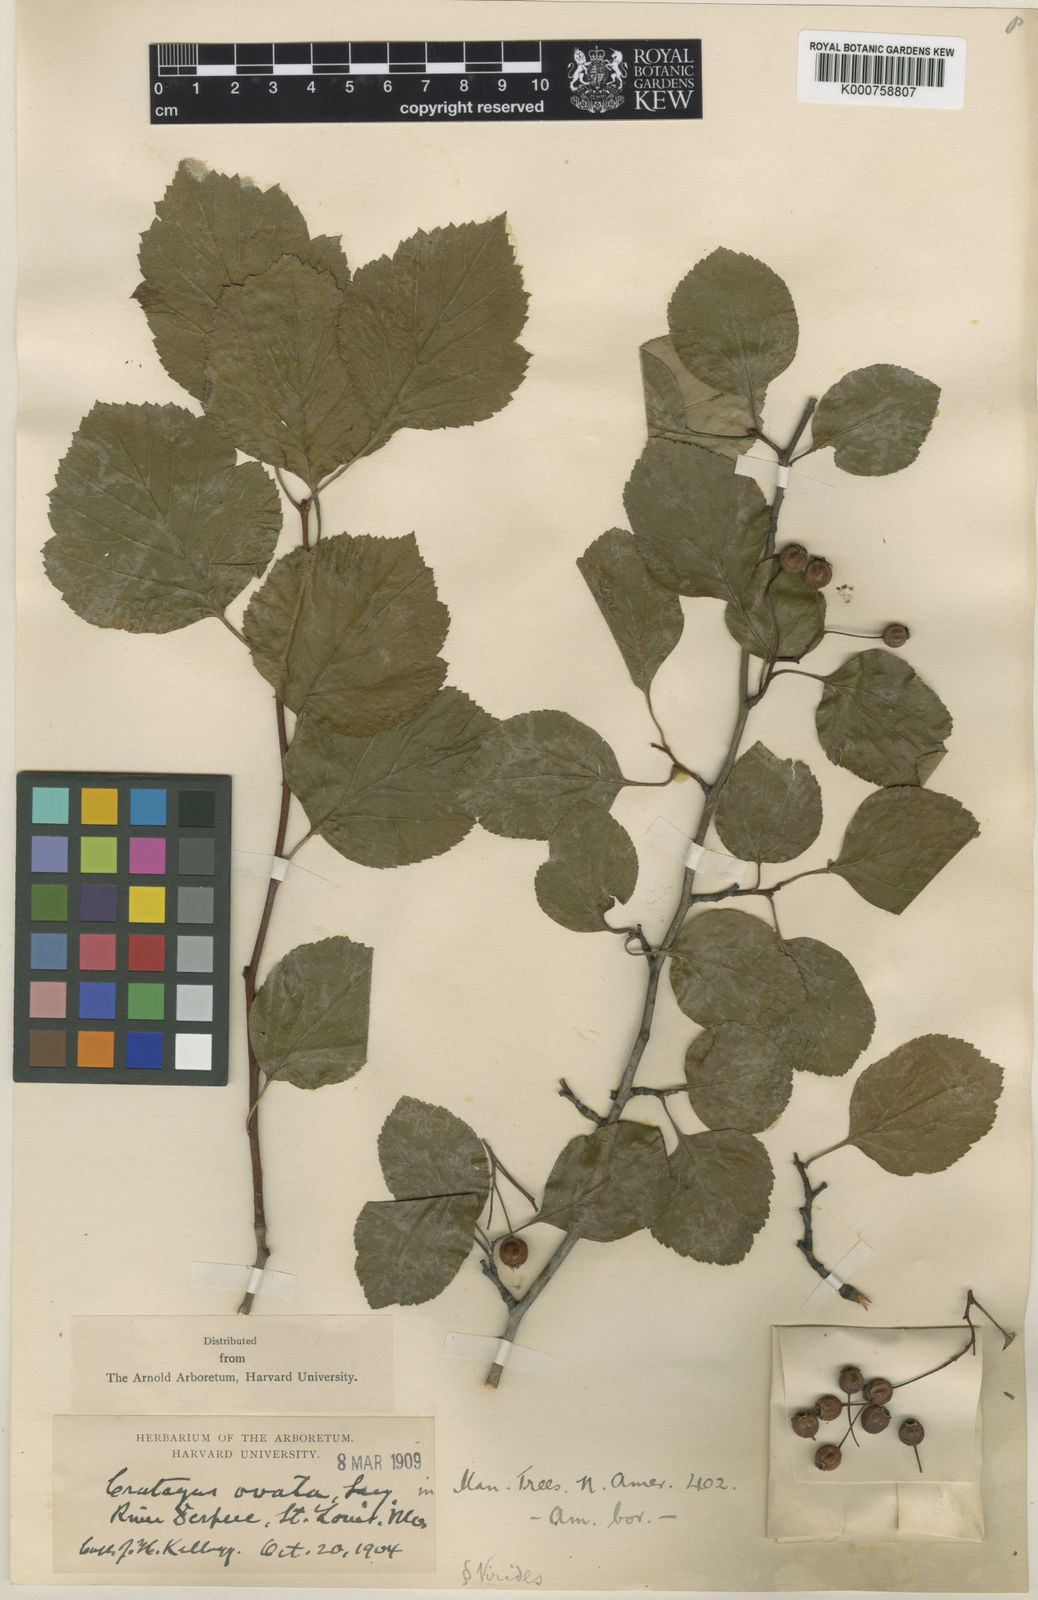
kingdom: Plantae
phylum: Tracheophyta
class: Magnoliopsida
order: Rosales
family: Rosaceae
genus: Crataegus
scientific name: Crataegus viridis
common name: Southernthorn
